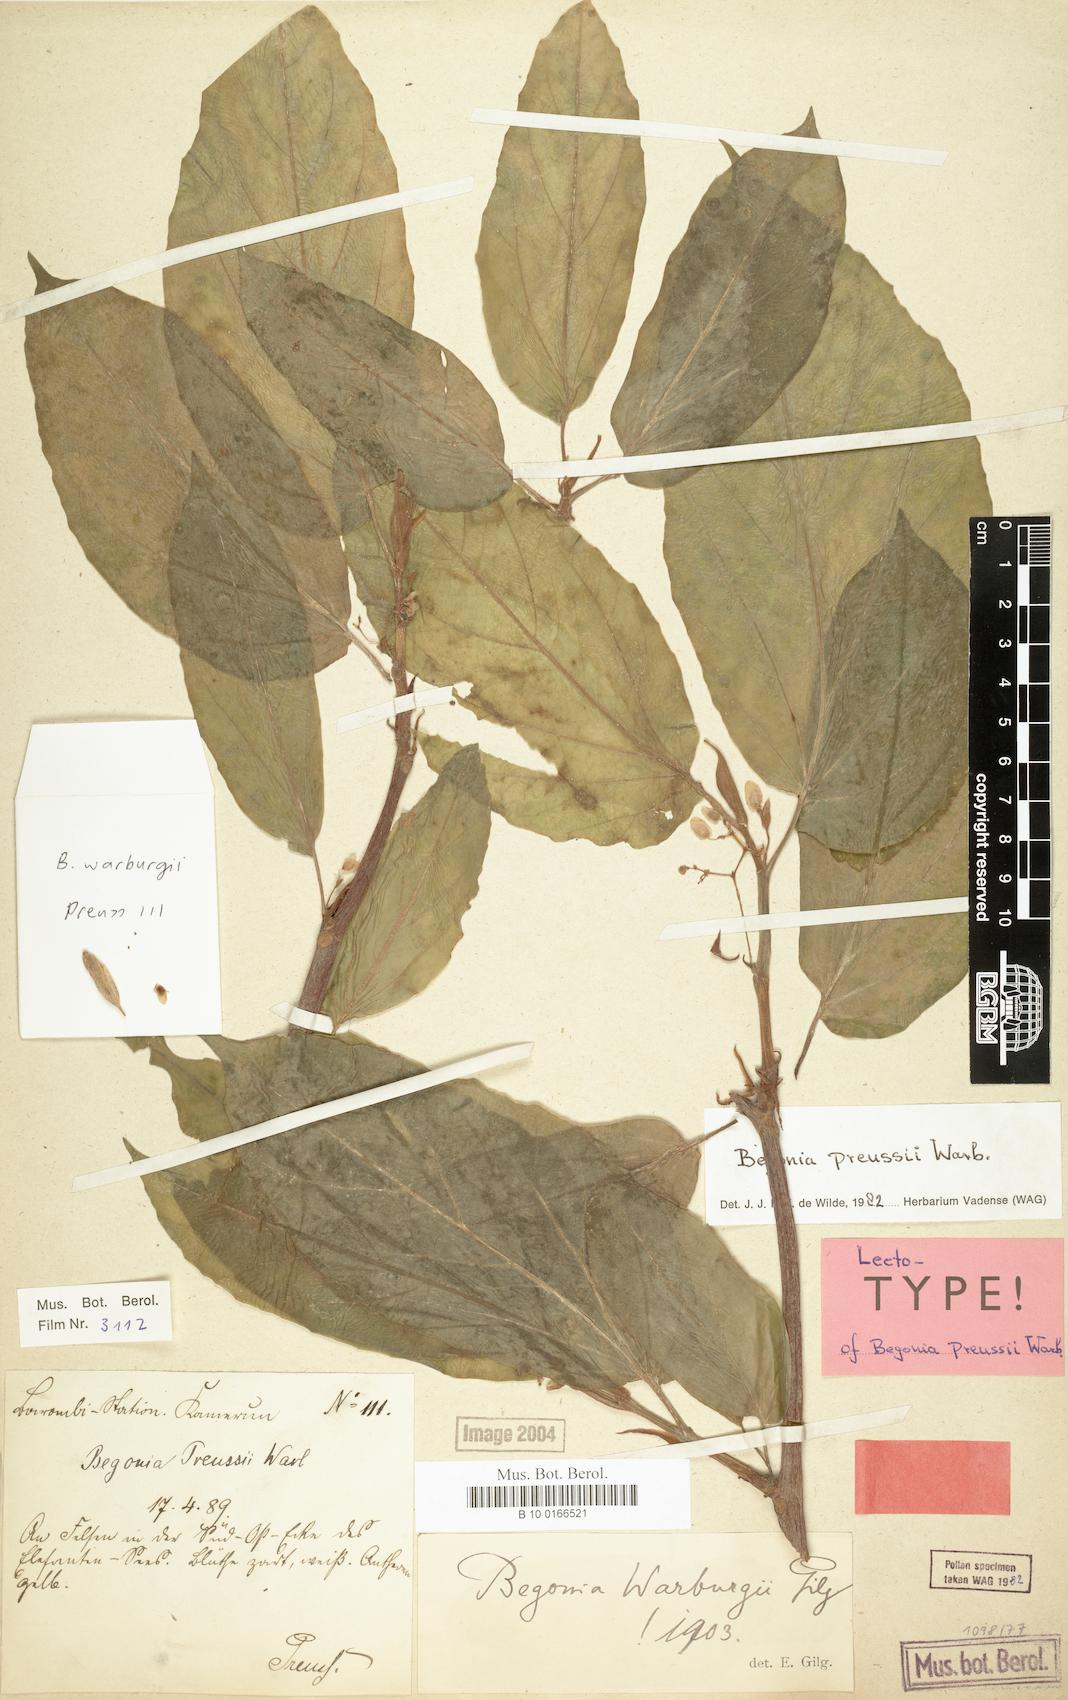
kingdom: Plantae
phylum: Tracheophyta
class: Magnoliopsida
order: Cucurbitales
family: Begoniaceae
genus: Begonia
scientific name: Begonia preussii
